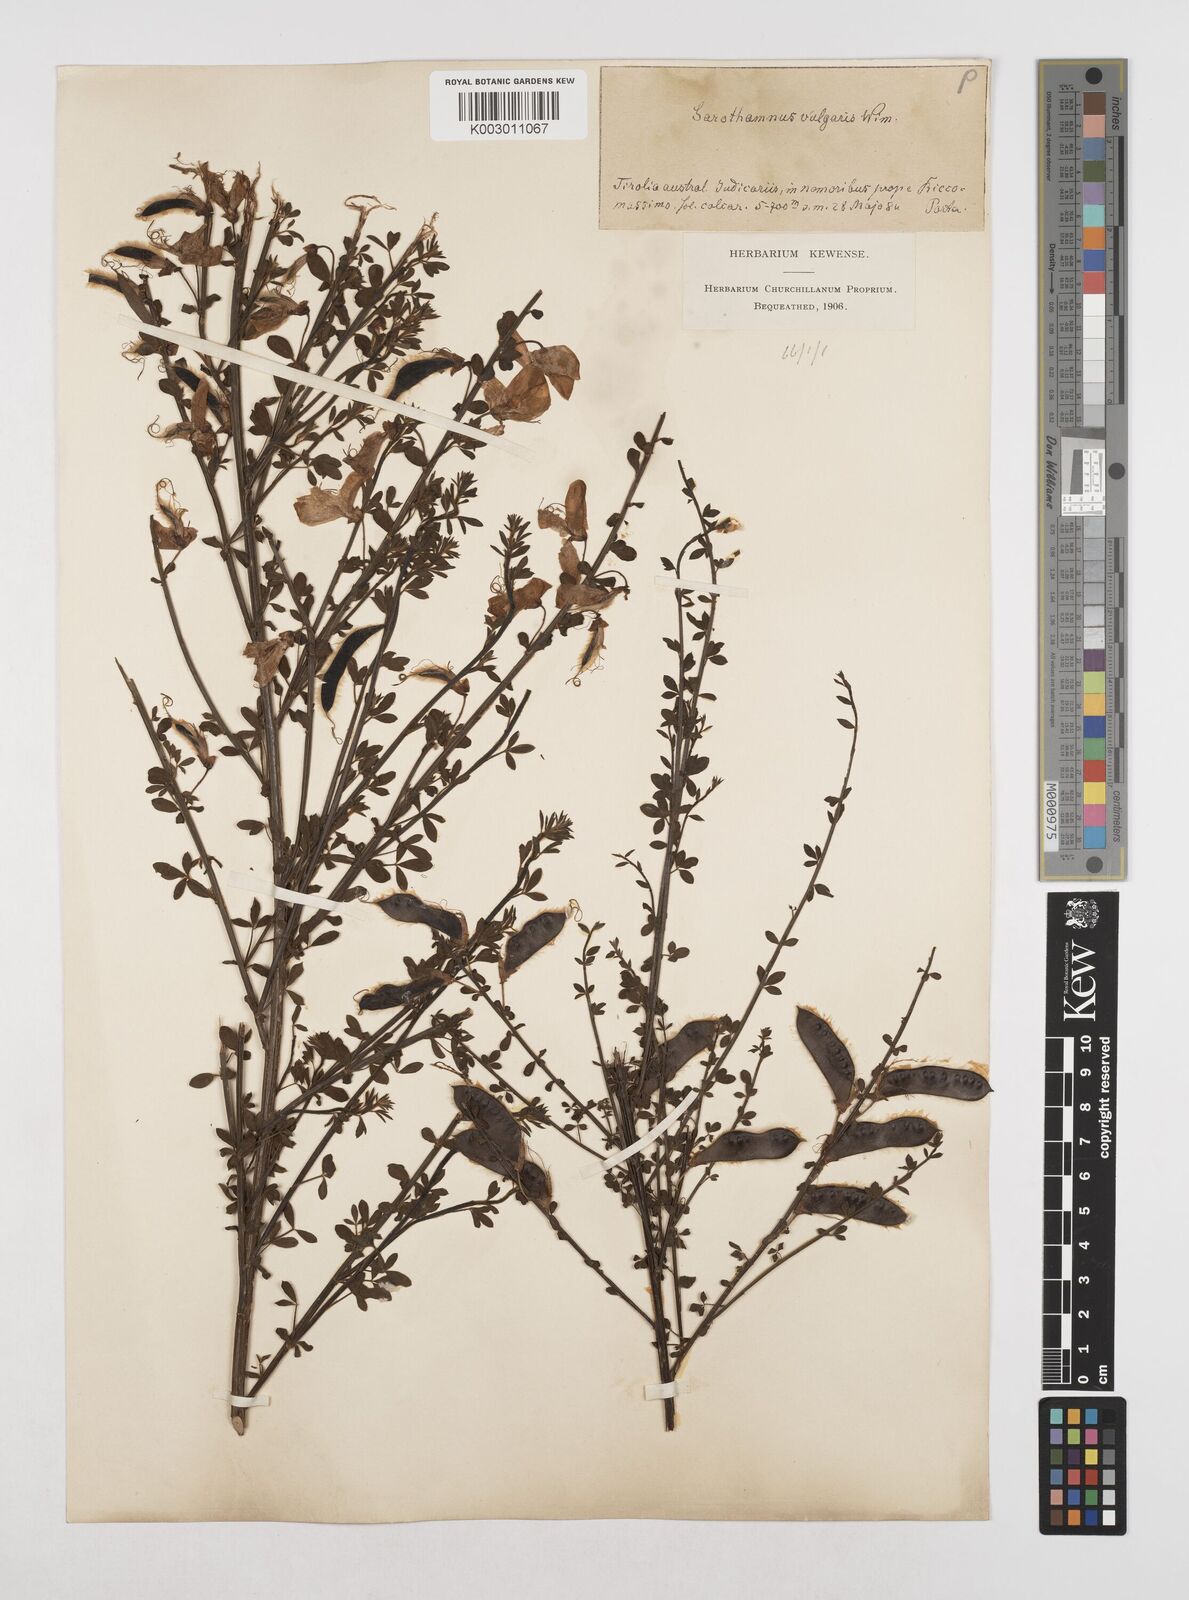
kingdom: Plantae
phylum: Tracheophyta
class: Magnoliopsida
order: Fabales
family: Fabaceae
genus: Cytisus
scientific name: Cytisus scoparius
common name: Scotch broom
